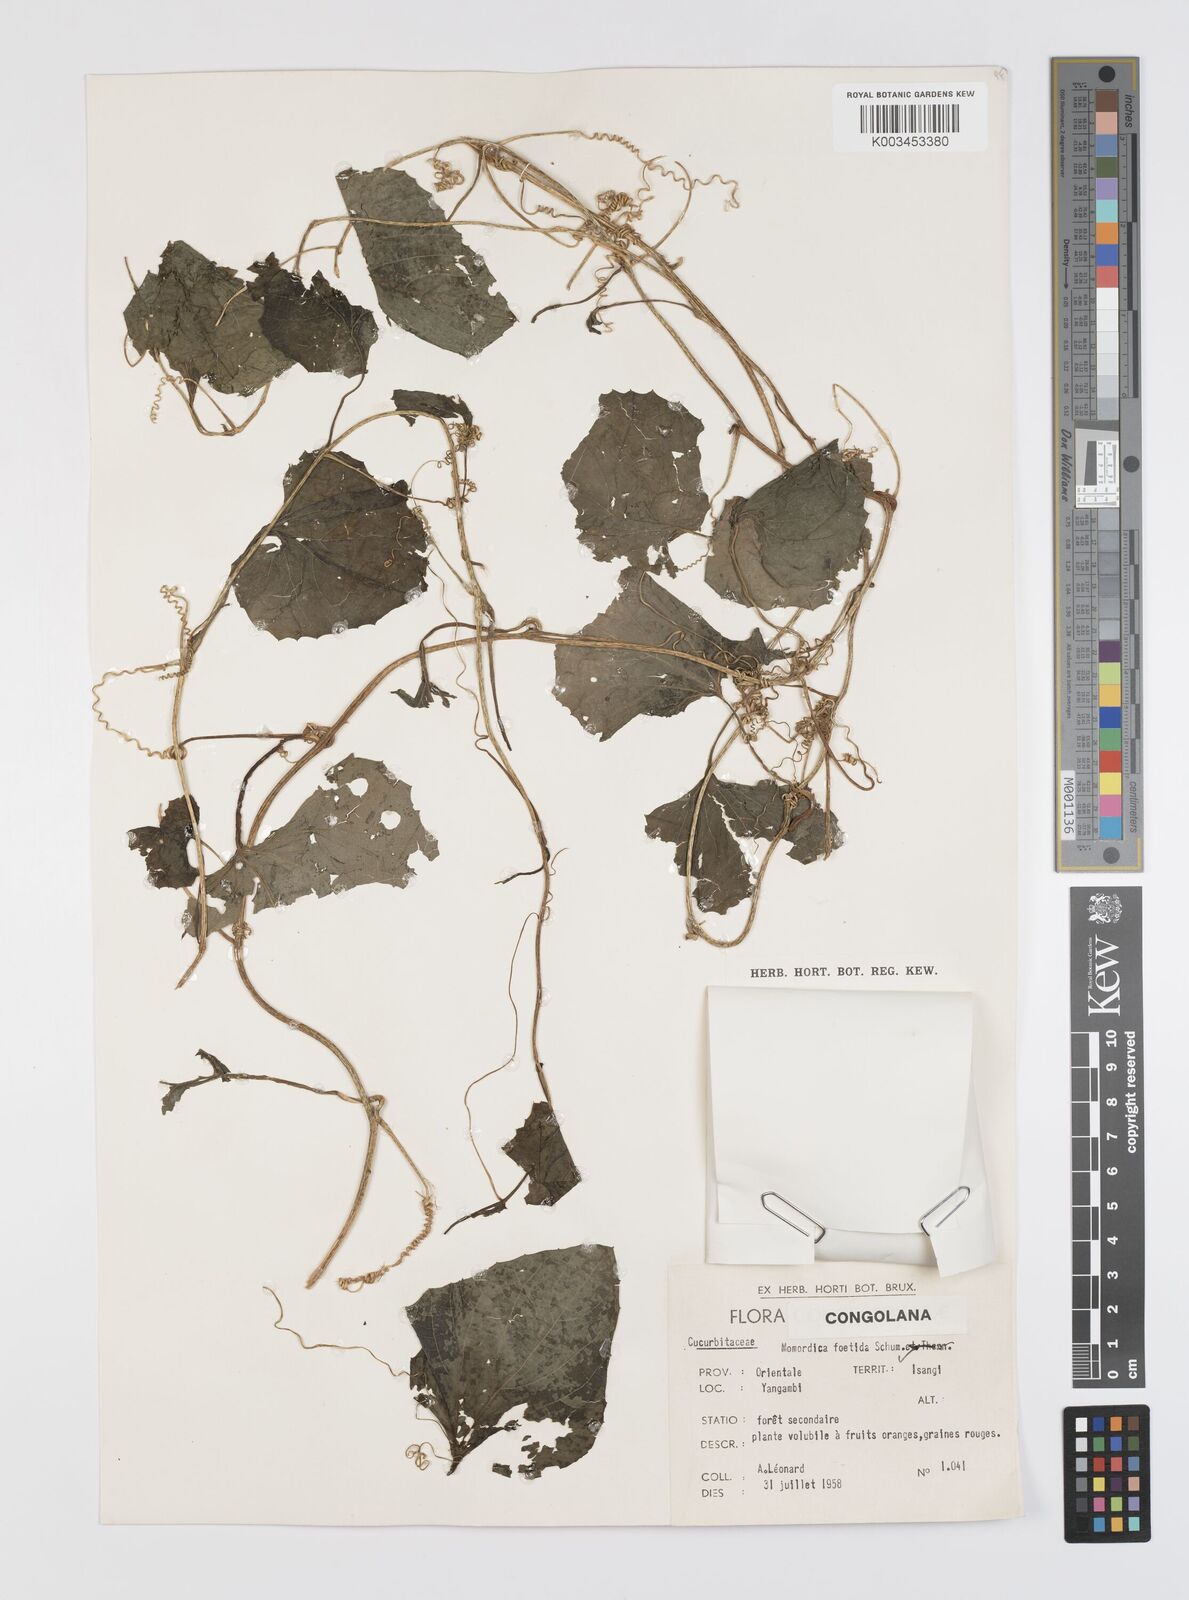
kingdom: Plantae
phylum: Tracheophyta
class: Magnoliopsida
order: Cucurbitales
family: Cucurbitaceae
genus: Momordica
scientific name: Momordica foetida
